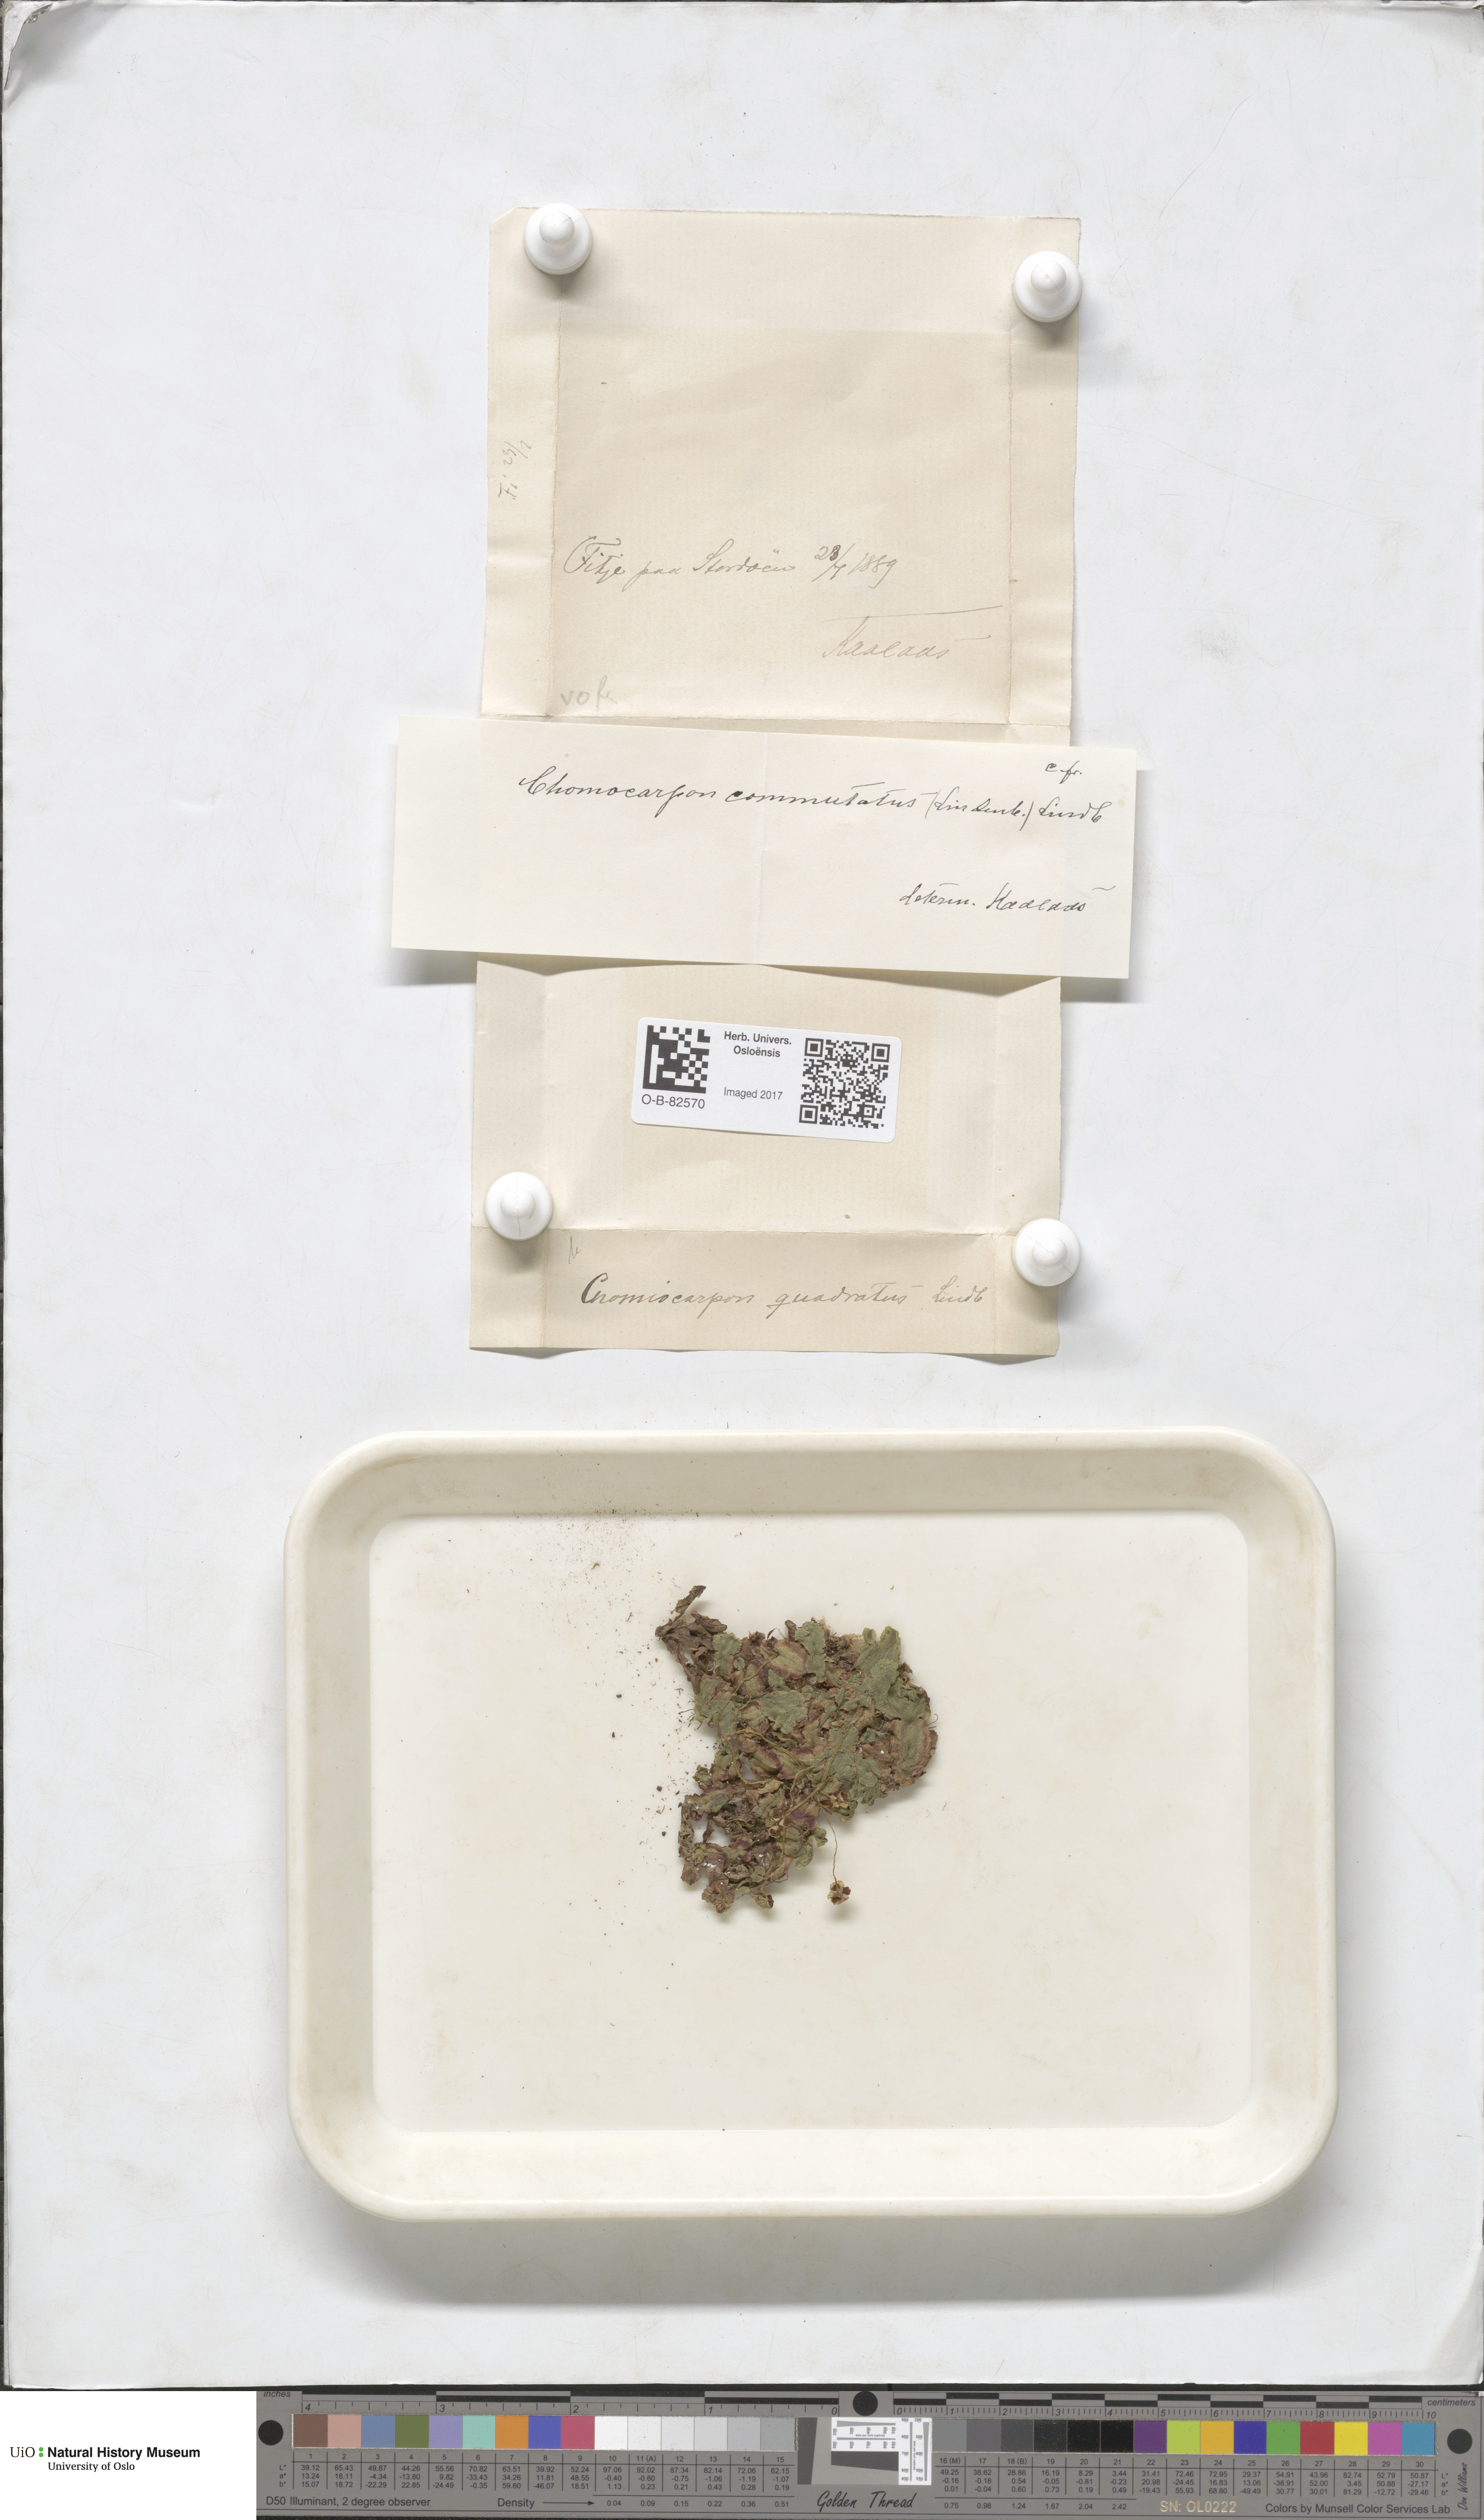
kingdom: Plantae
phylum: Marchantiophyta
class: Marchantiopsida
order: Marchantiales
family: Marchantiaceae
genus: Marchantia
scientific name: Marchantia quadrata
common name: Narrow mushroom-headed liverwort
